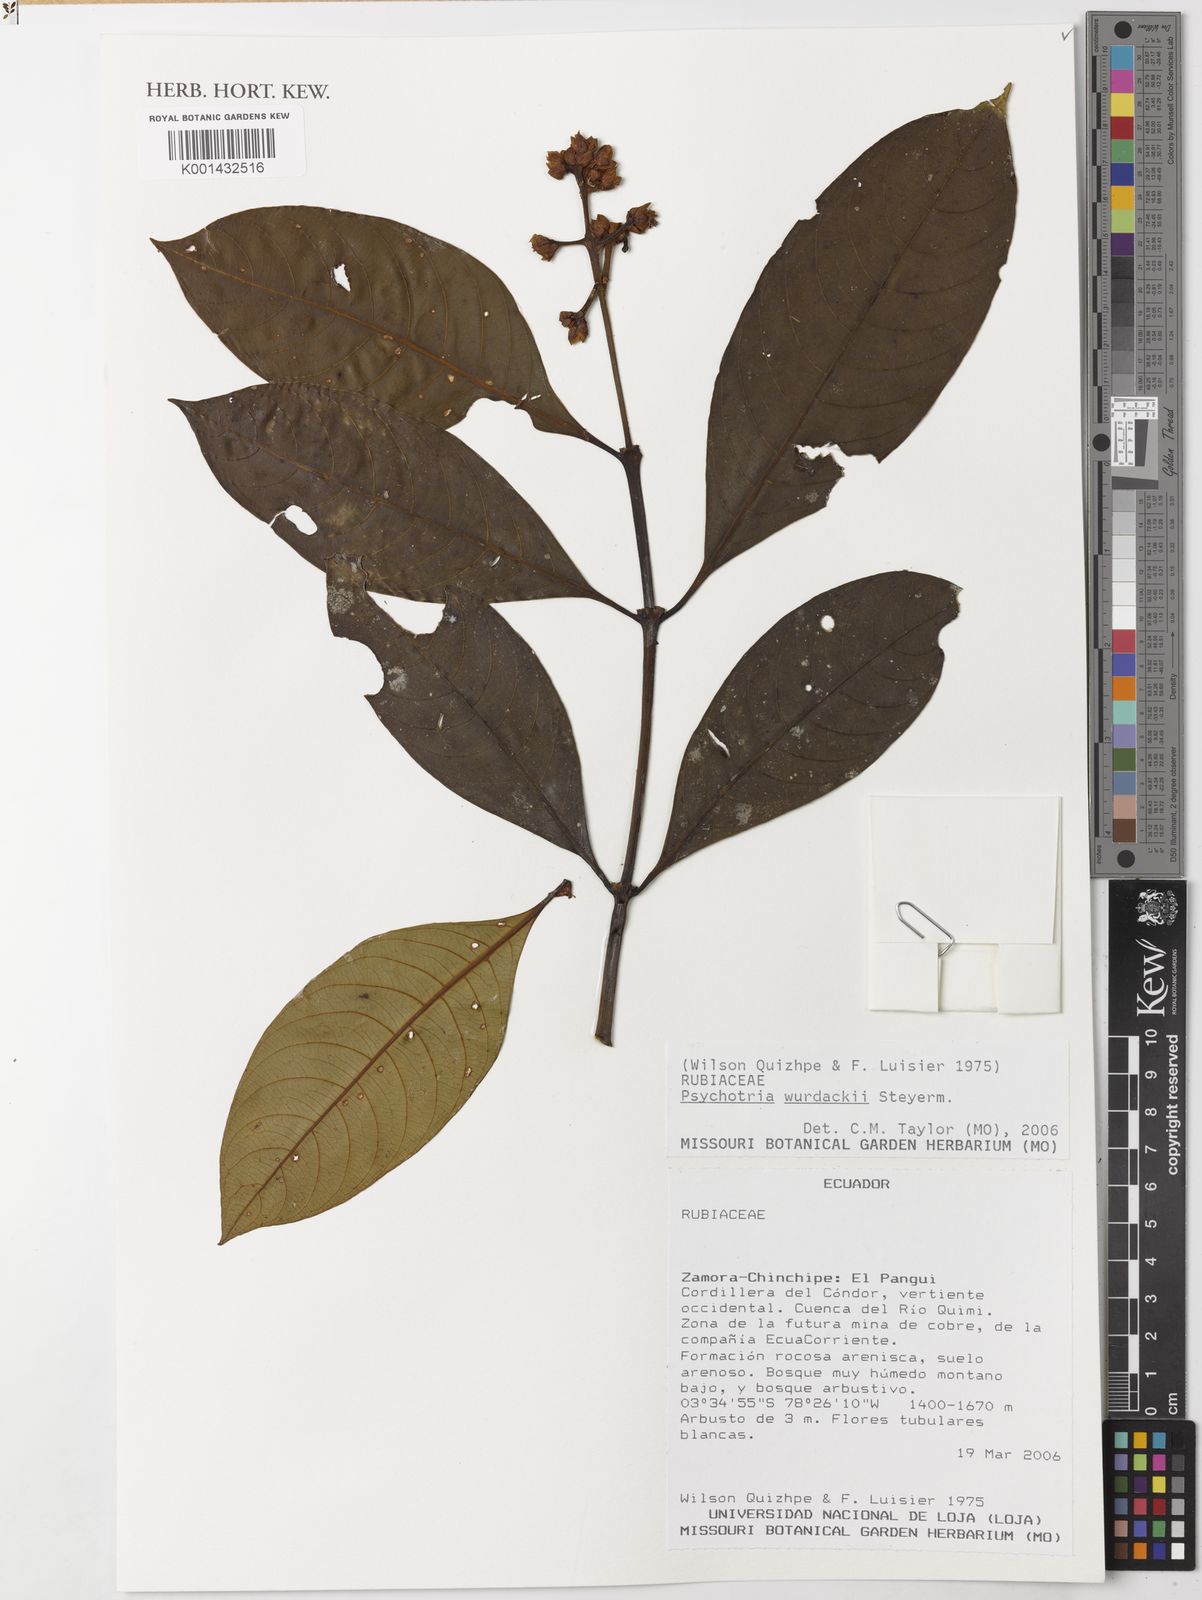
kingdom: Plantae
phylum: Tracheophyta
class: Magnoliopsida
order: Gentianales
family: Rubiaceae
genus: Palicourea
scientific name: Palicourea wurdackii
